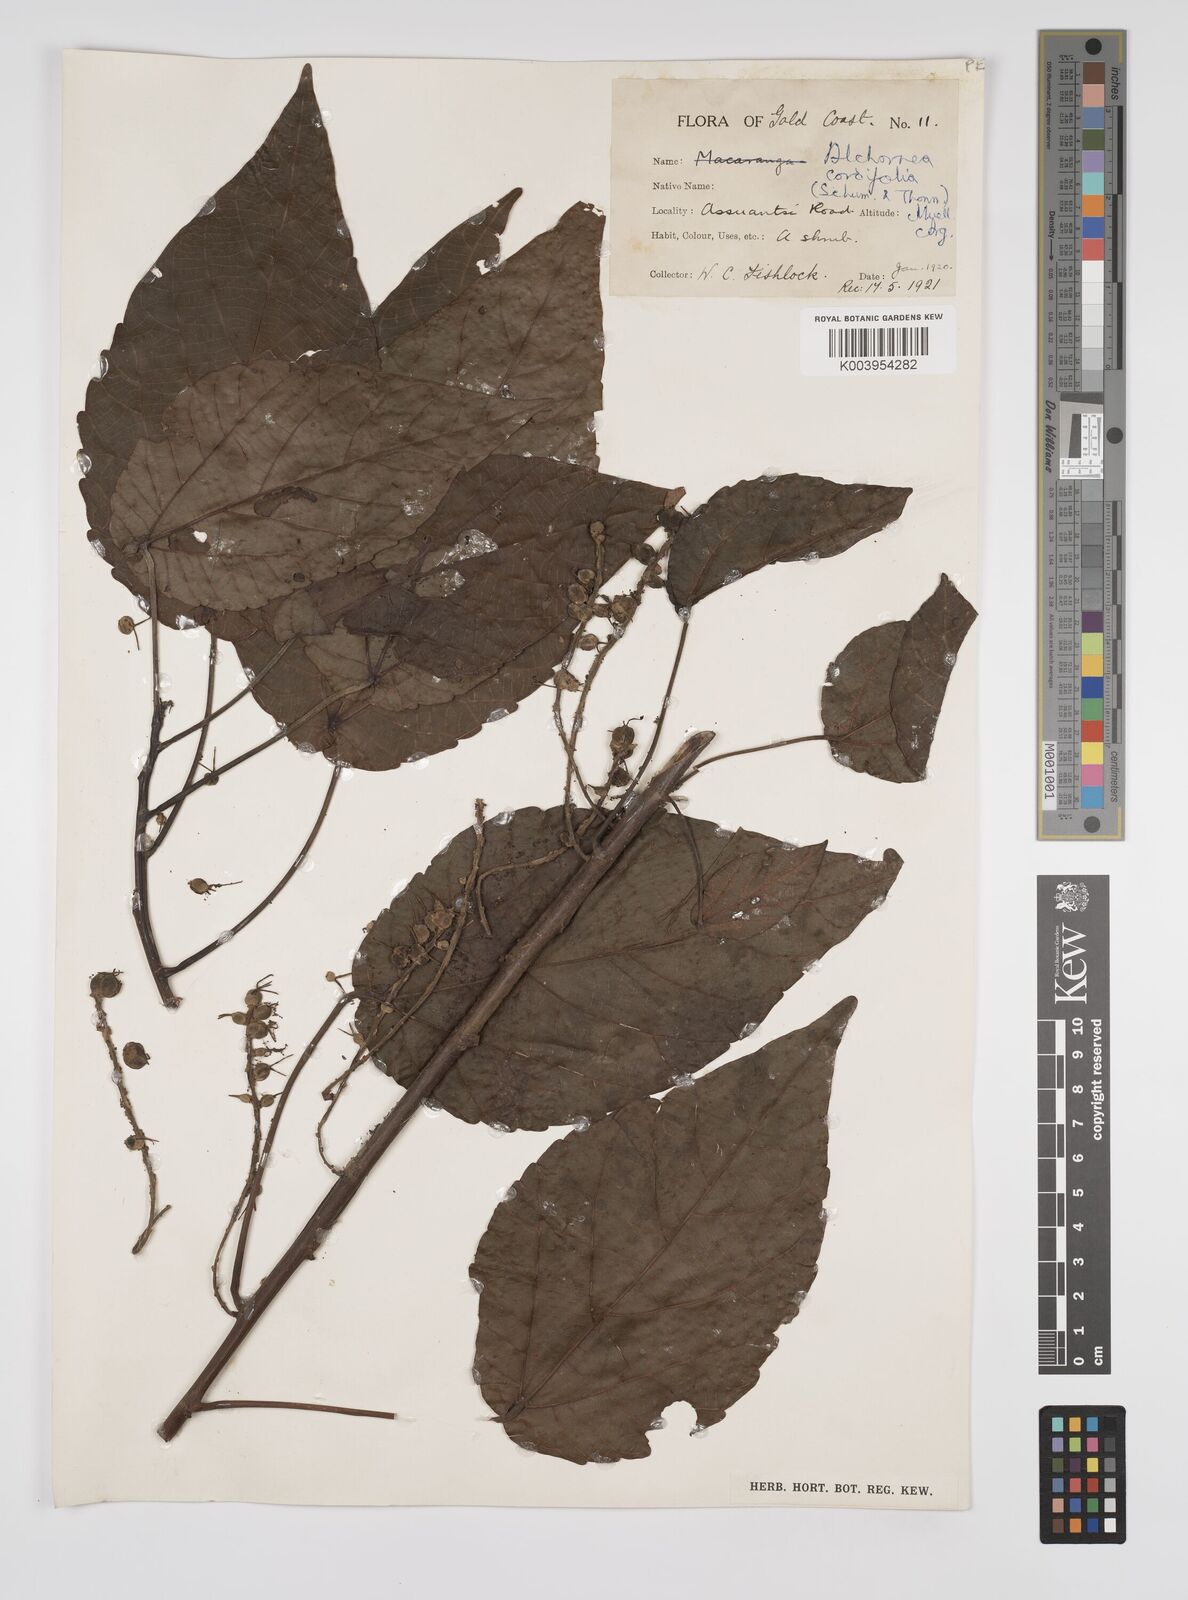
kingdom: Plantae
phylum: Tracheophyta
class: Magnoliopsida
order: Malpighiales
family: Euphorbiaceae
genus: Alchornea
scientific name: Alchornea cordifolia
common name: Christmasbush
